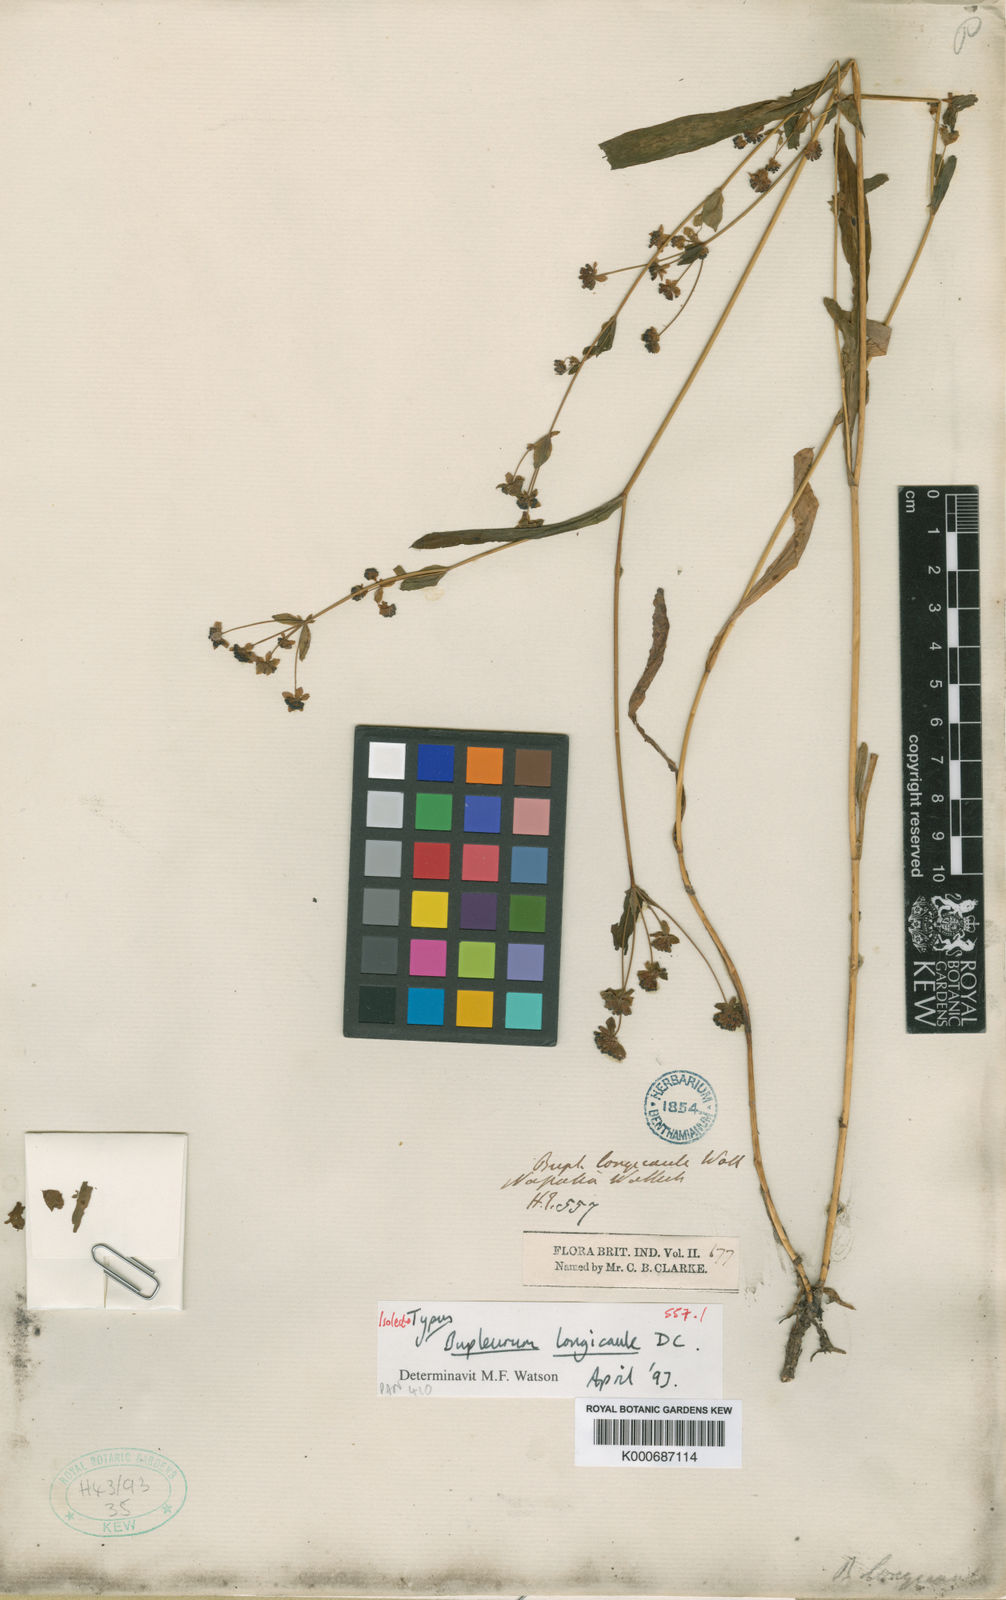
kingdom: Plantae
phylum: Tracheophyta
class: Magnoliopsida
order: Apiales
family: Apiaceae
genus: Bupleurum
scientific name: Bupleurum longicaule
